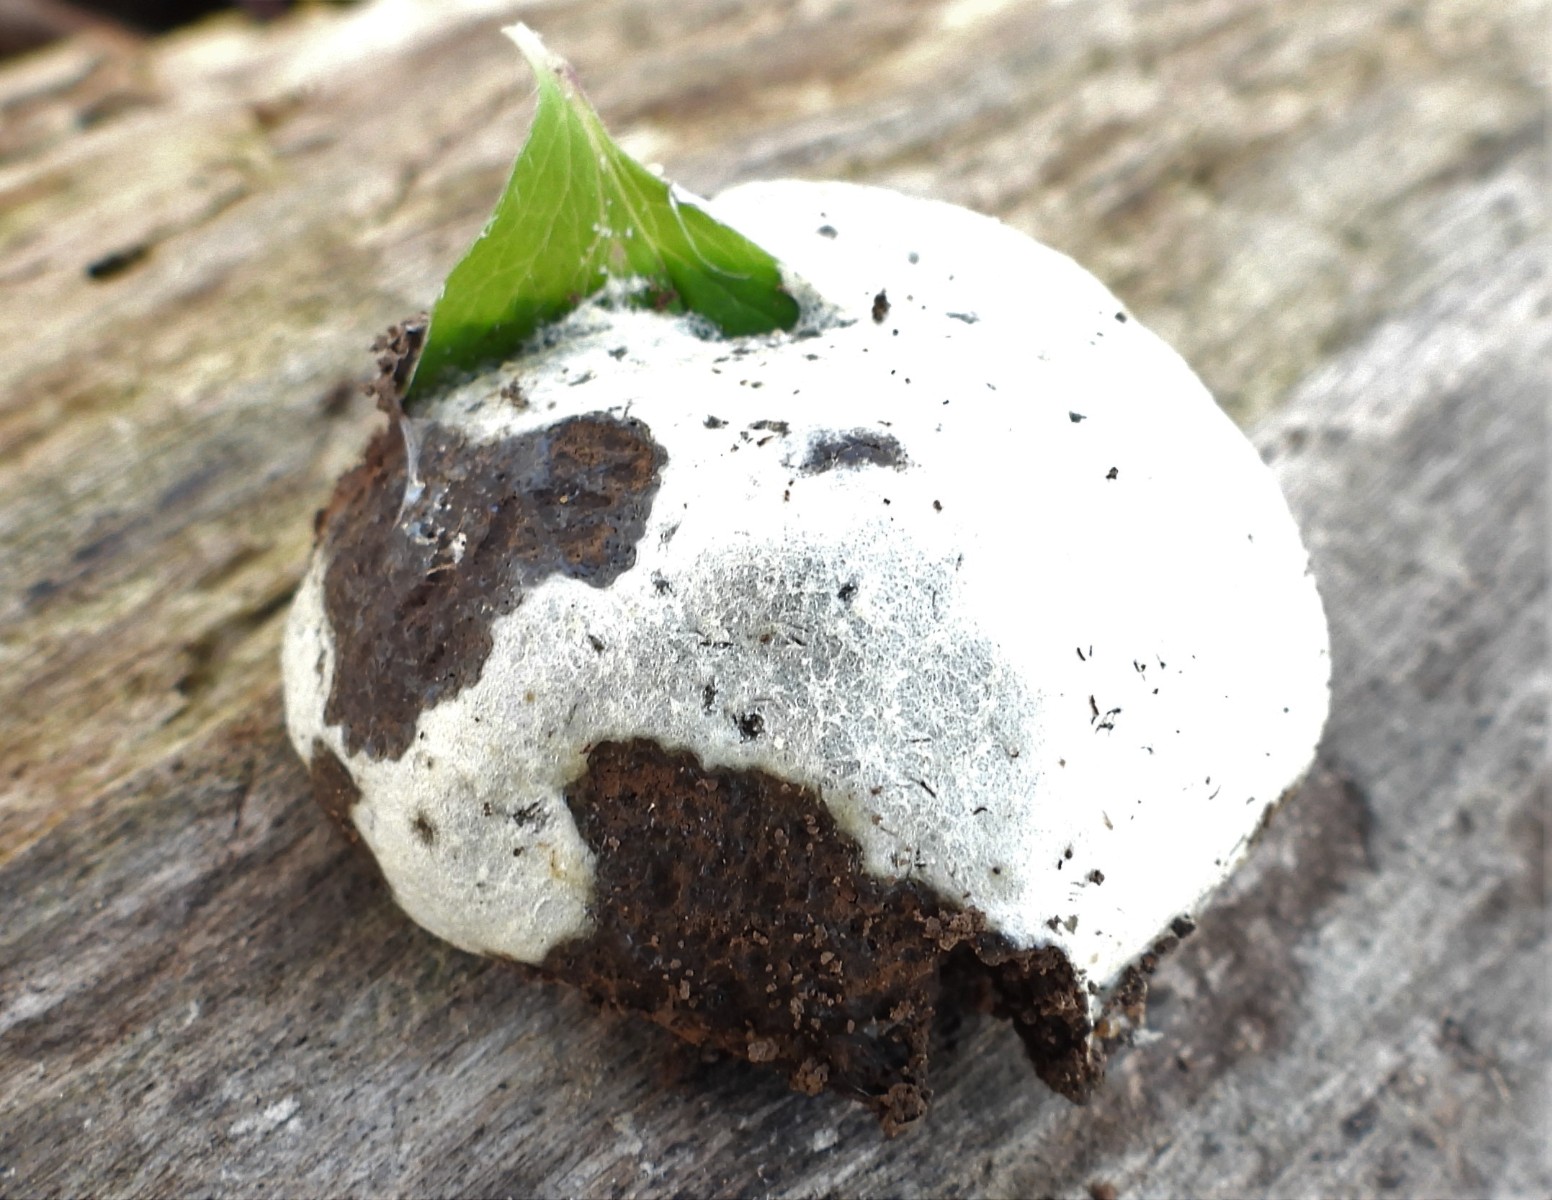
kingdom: Protozoa
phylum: Mycetozoa
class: Myxomycetes
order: Cribrariales
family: Tubiferaceae
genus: Reticularia
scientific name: Reticularia lycoperdon
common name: skinnende støvpude
